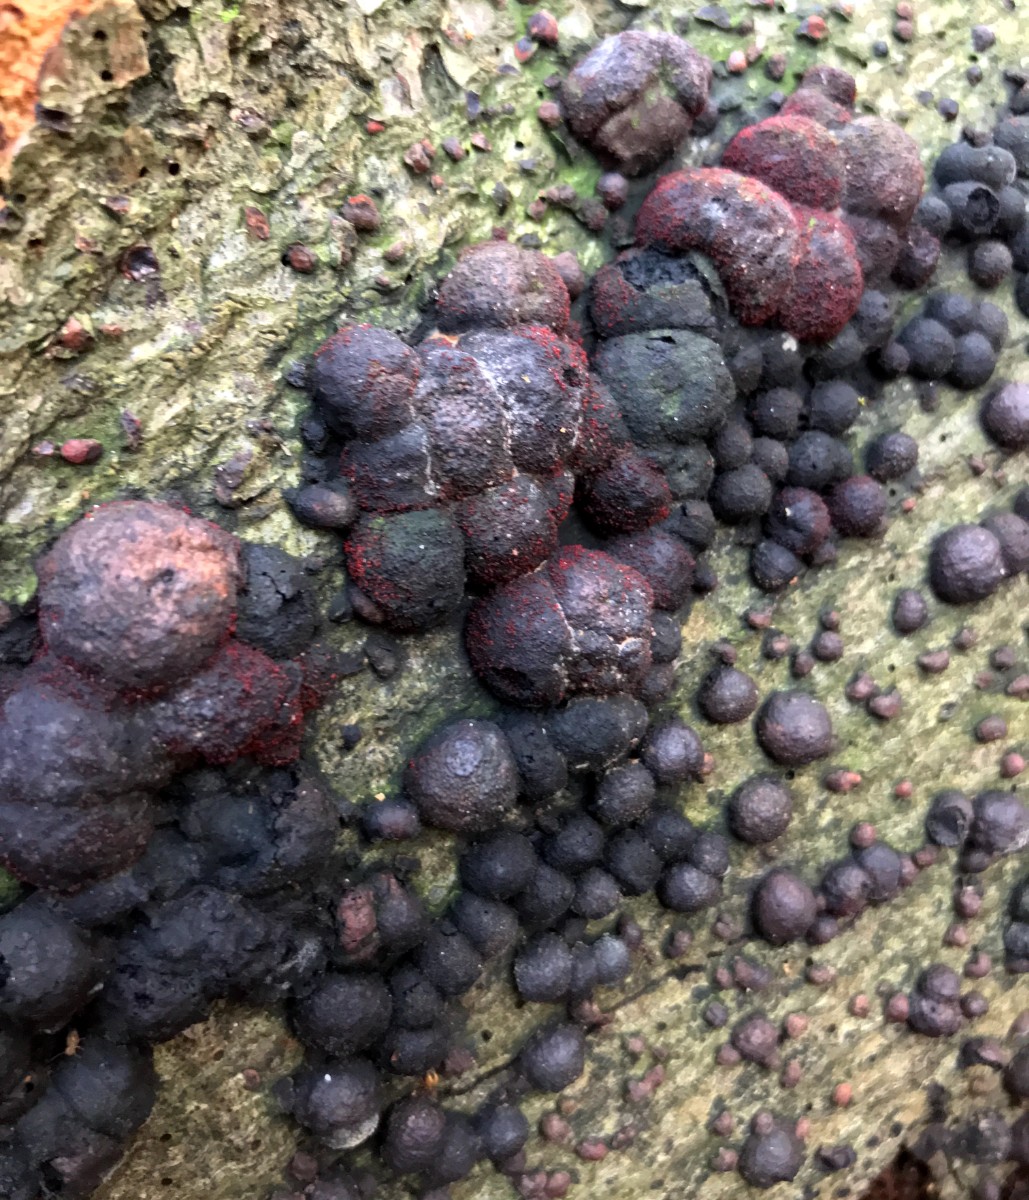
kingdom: Fungi
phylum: Ascomycota
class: Sordariomycetes
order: Xylariales
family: Hypoxylaceae
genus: Hypoxylon
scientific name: Hypoxylon fragiforme
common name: kuljordbær
